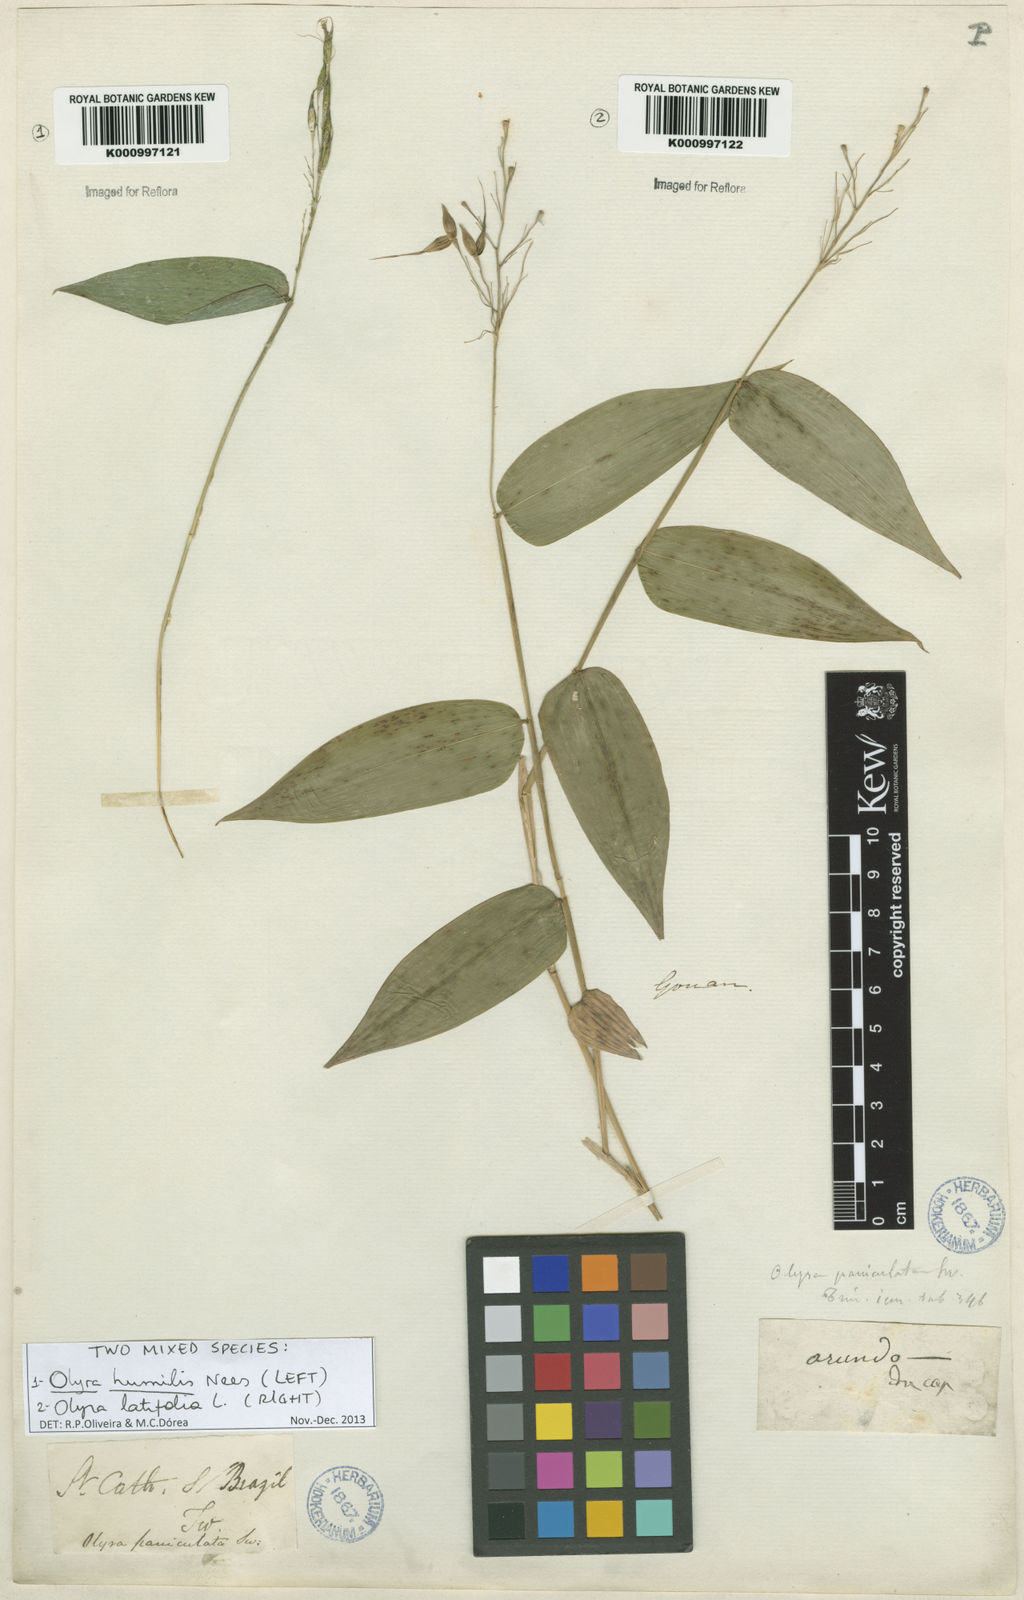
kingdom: Plantae
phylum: Tracheophyta
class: Liliopsida
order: Poales
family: Poaceae
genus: Olyra
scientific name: Olyra latifolia
